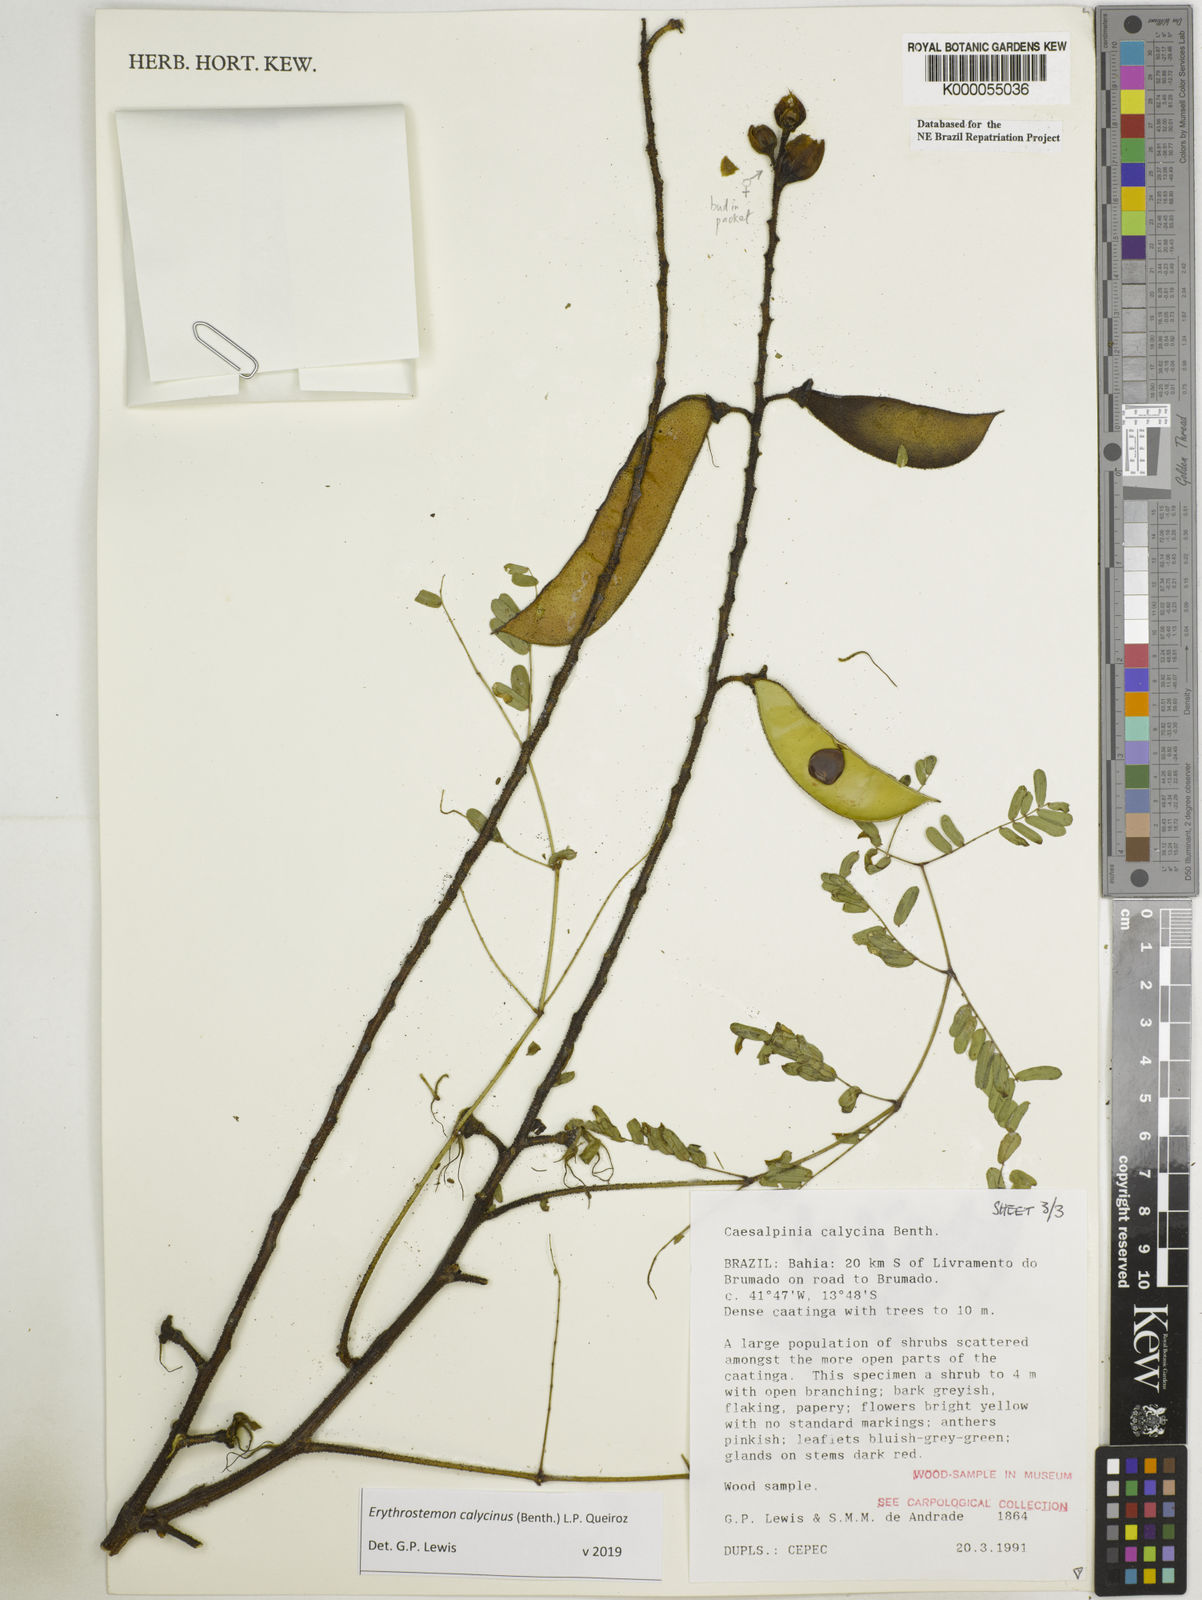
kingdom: Plantae
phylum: Tracheophyta
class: Magnoliopsida
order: Fabales
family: Fabaceae
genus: Erythrostemon
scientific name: Erythrostemon calycinus
